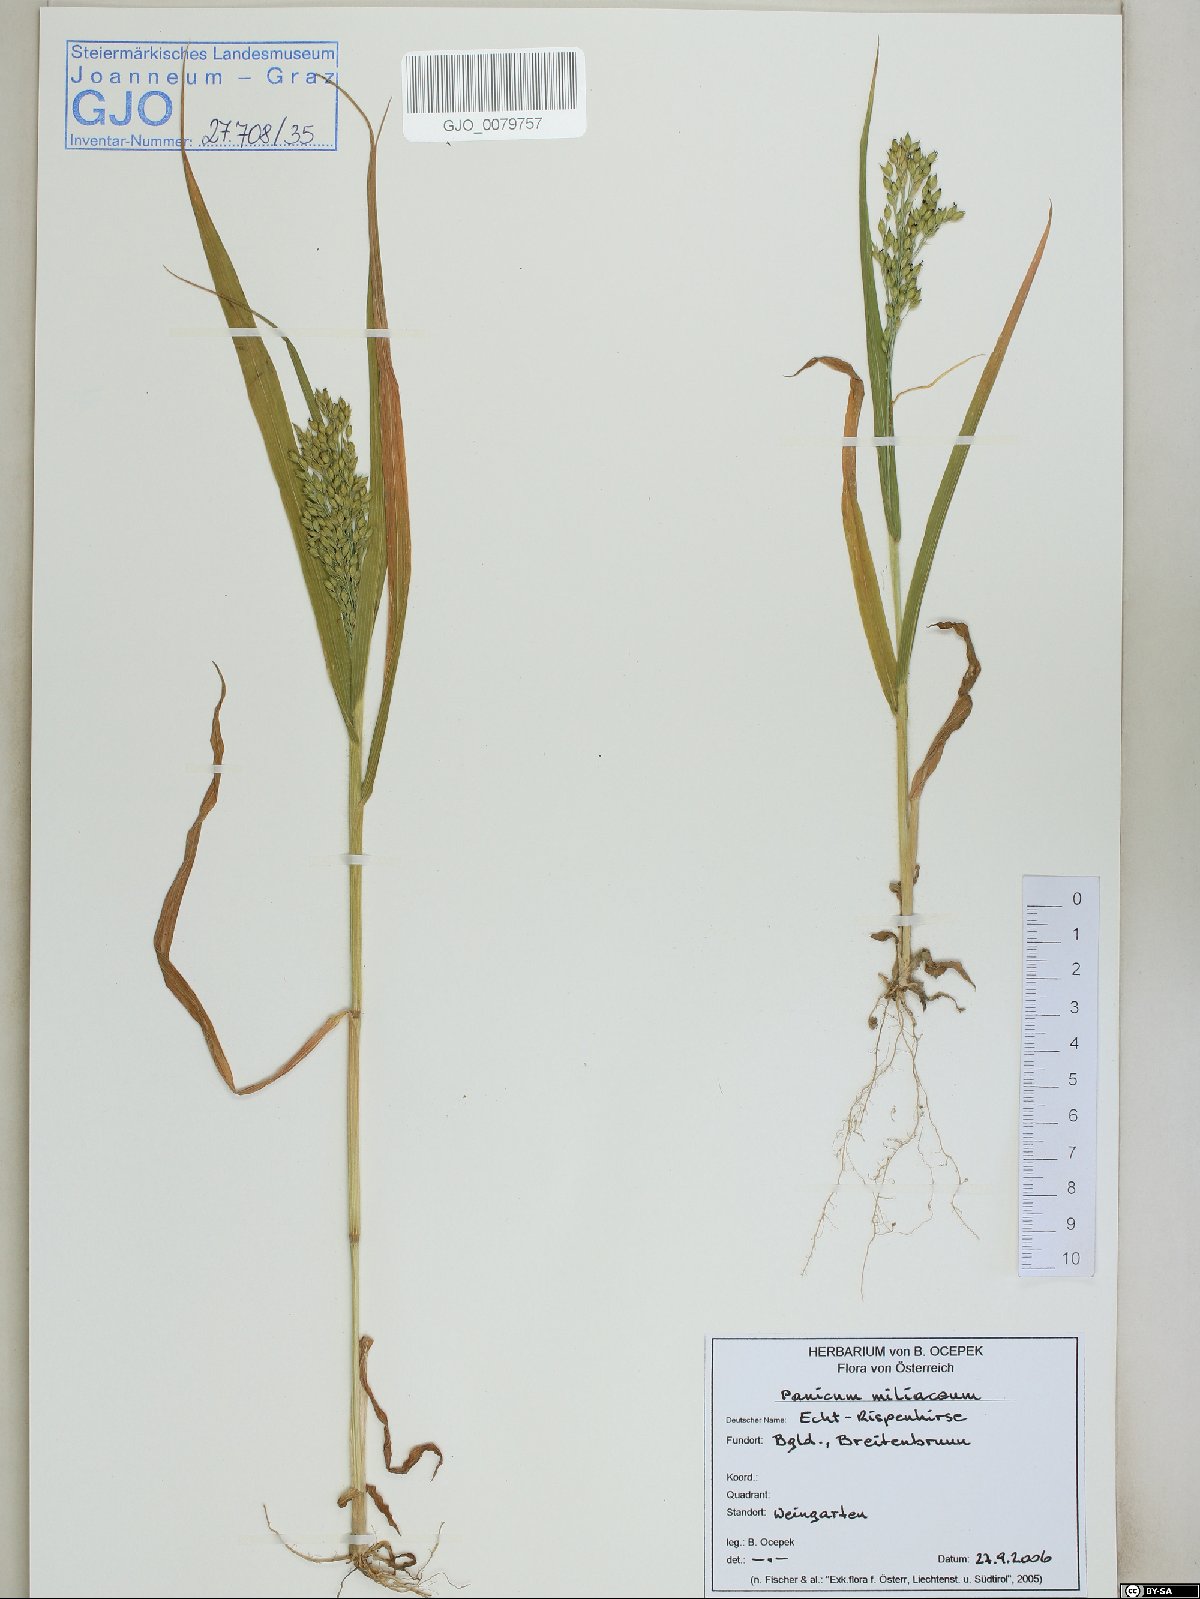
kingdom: Plantae
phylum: Tracheophyta
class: Liliopsida
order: Poales
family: Poaceae
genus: Panicum
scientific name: Panicum miliaceum
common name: Common millet
